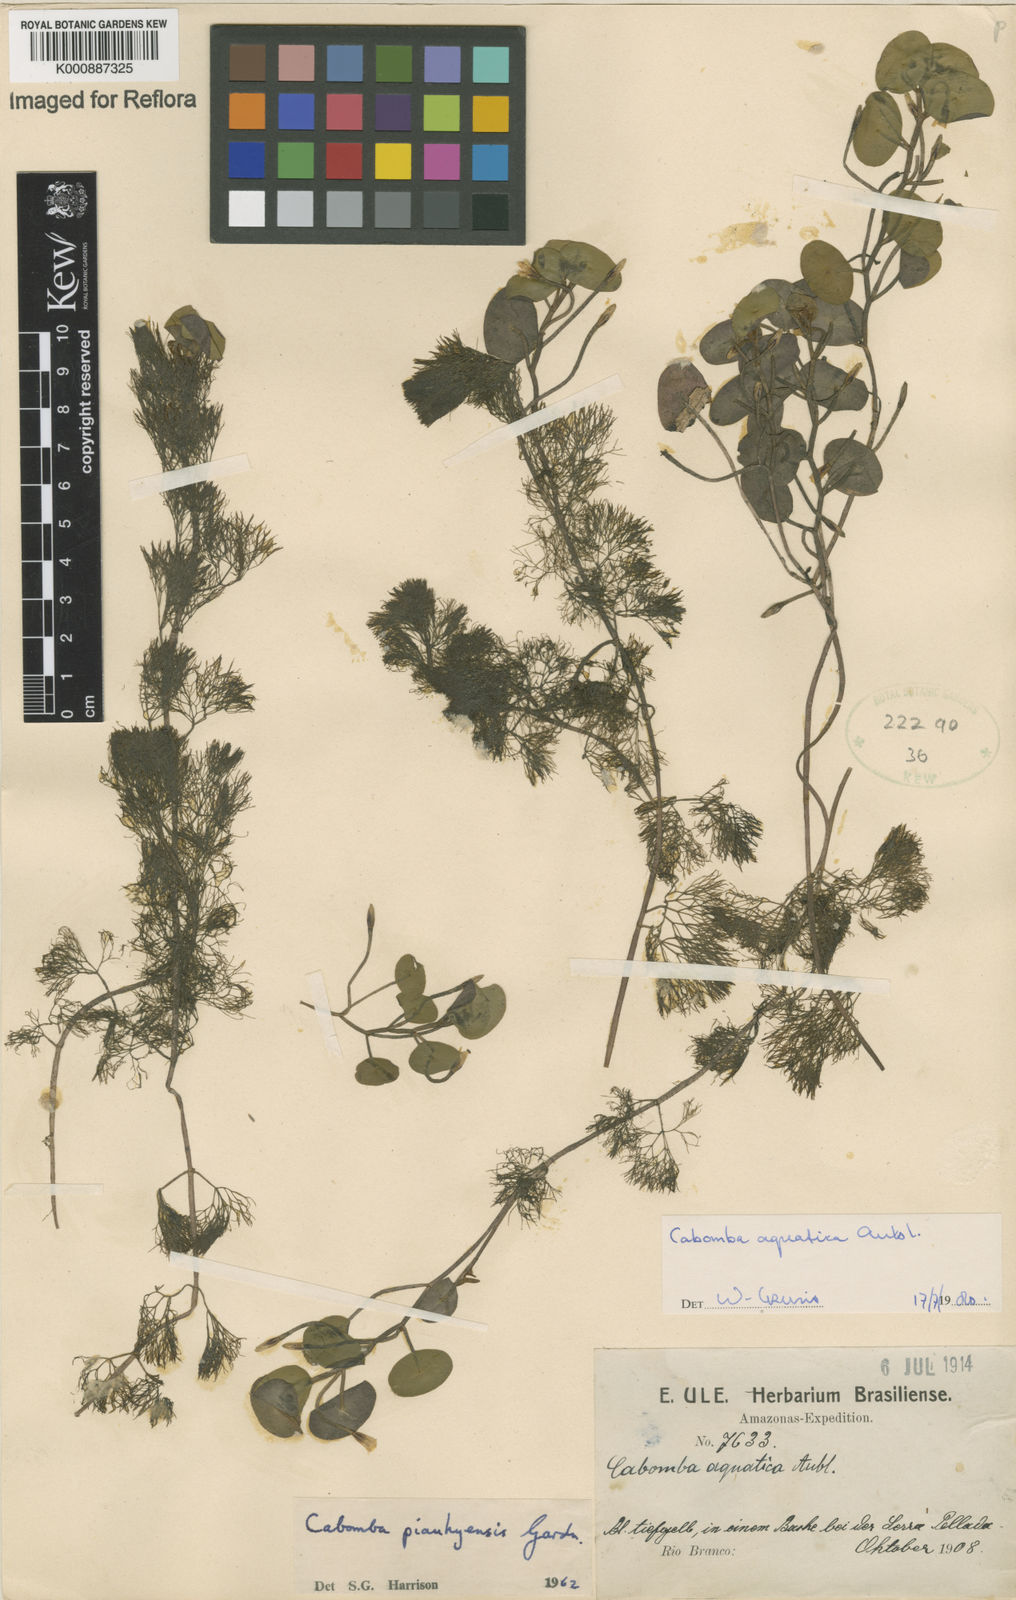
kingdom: Plantae
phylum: Tracheophyta
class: Magnoliopsida
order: Nymphaeales
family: Cabombaceae
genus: Cabomba
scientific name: Cabomba aquatica
